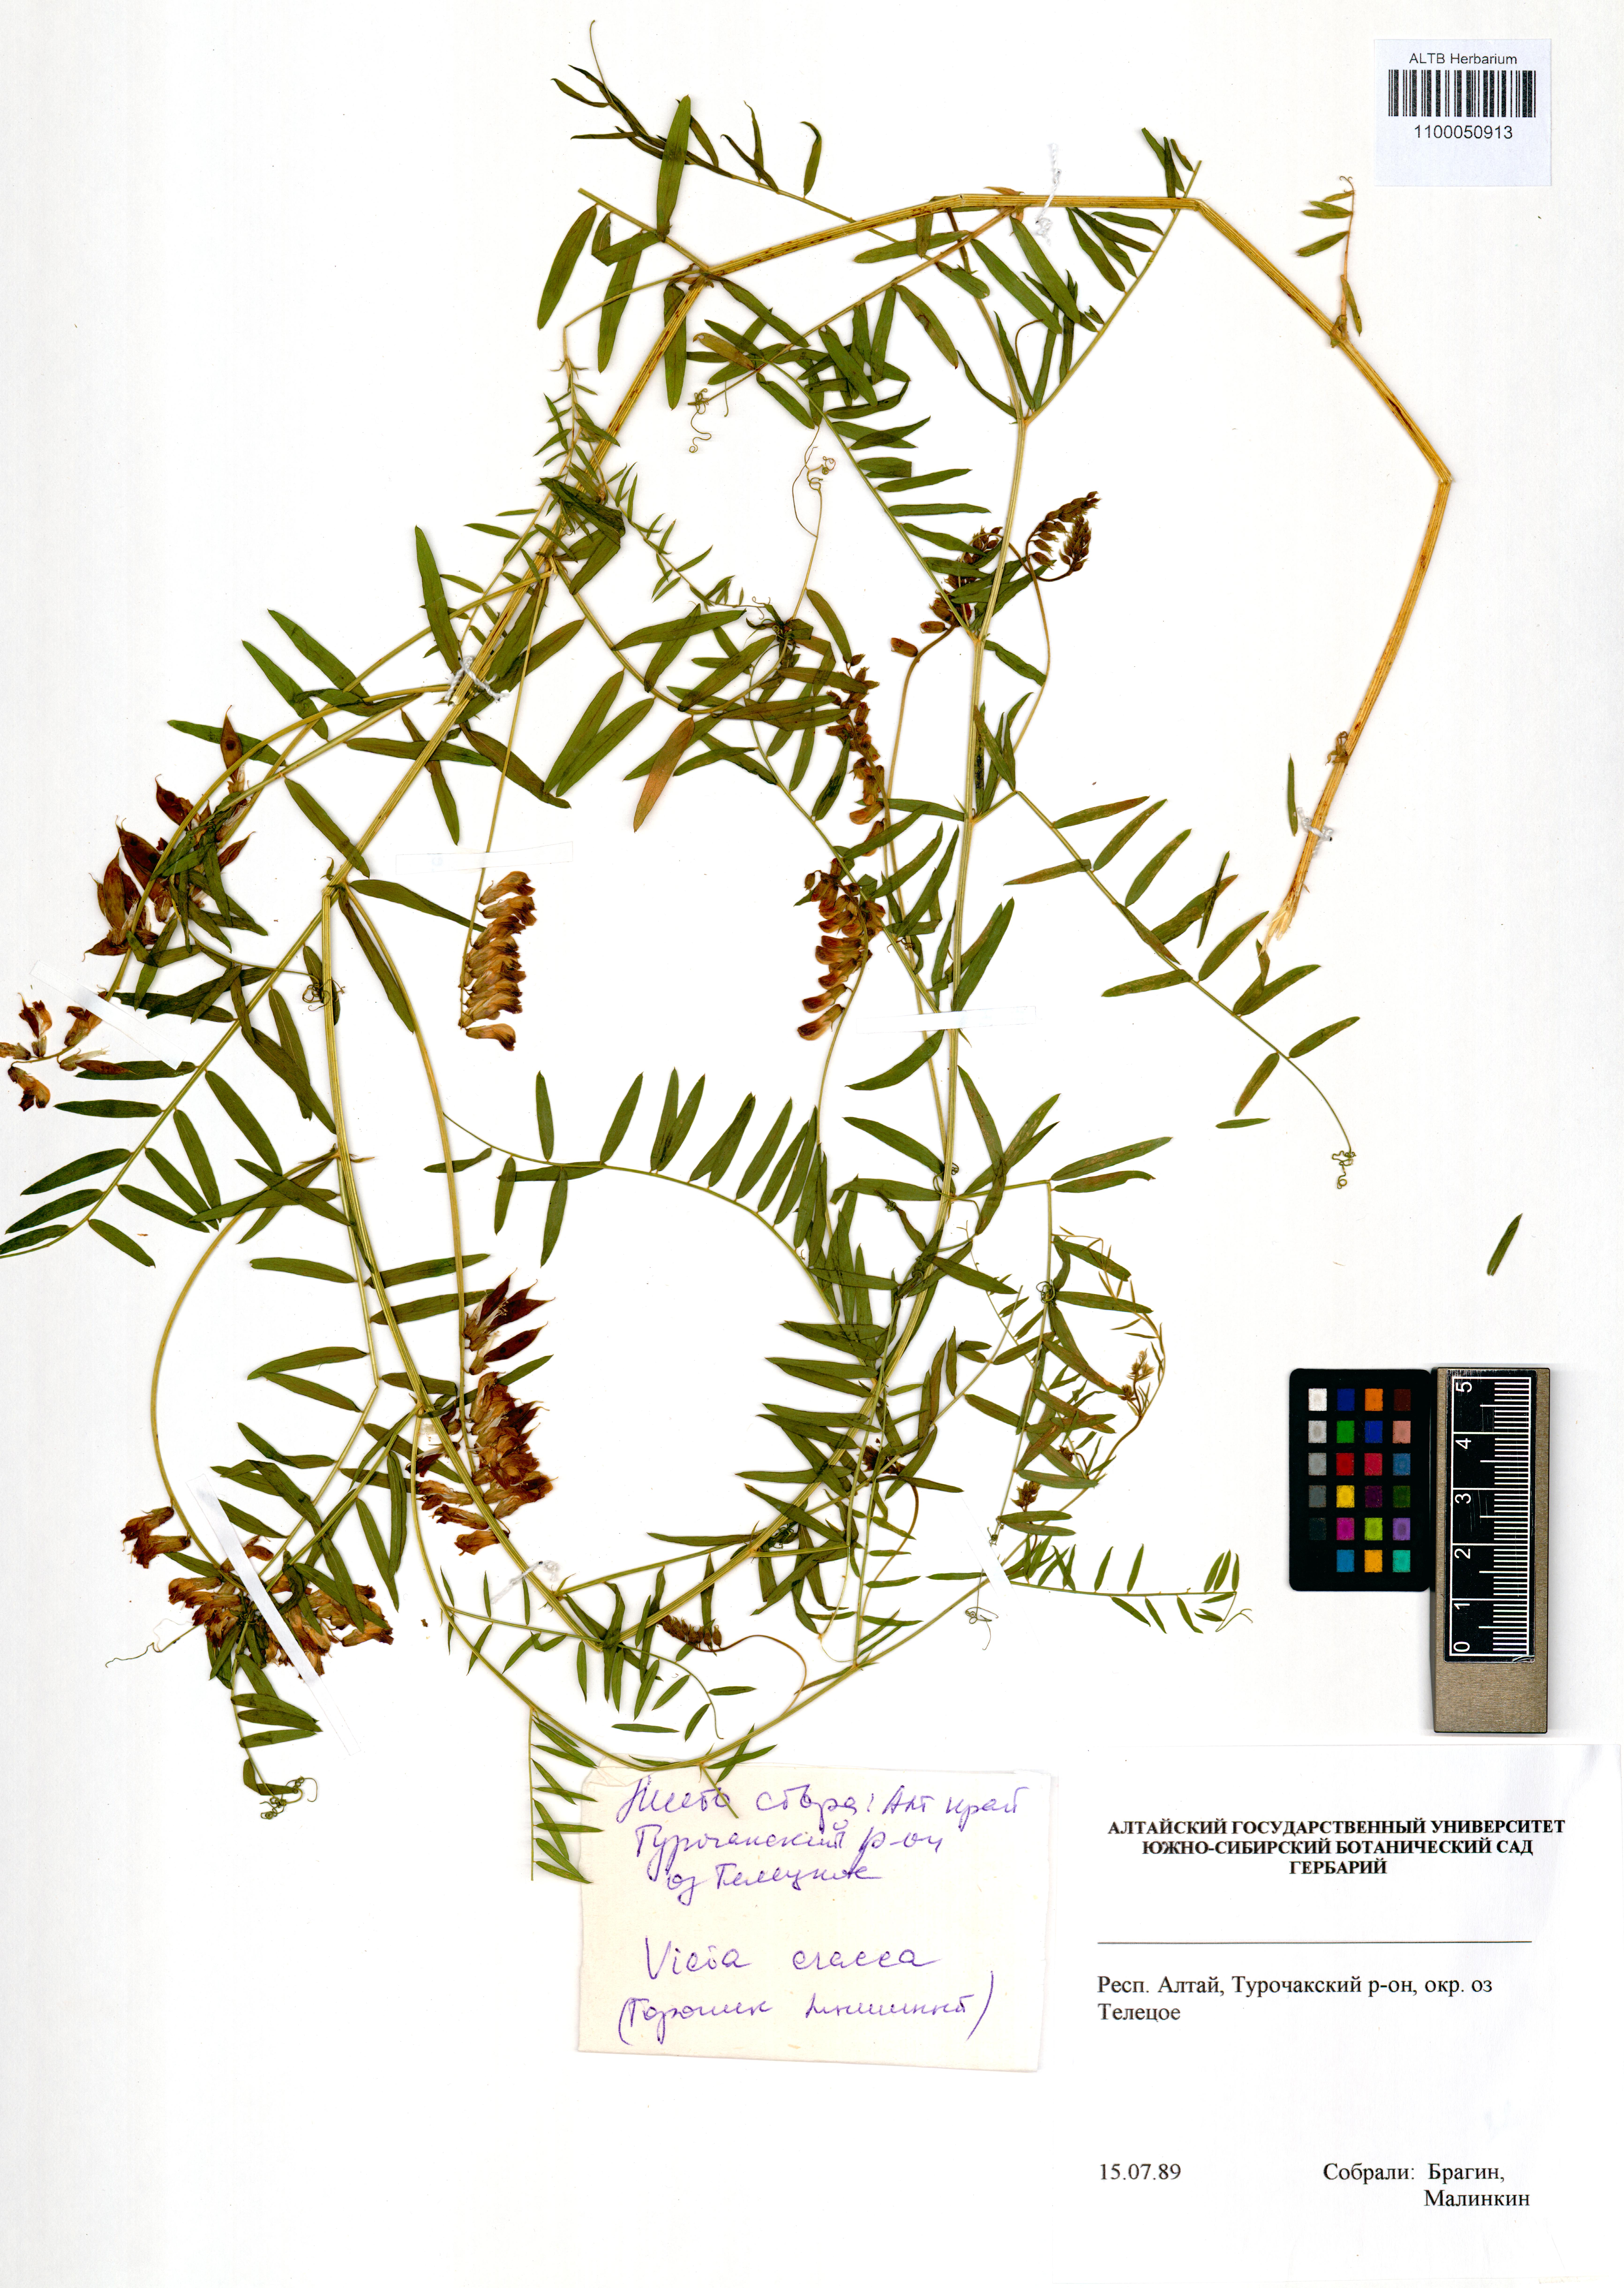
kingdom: Plantae
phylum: Tracheophyta
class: Magnoliopsida
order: Fabales
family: Fabaceae
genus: Vicia
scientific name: Vicia cracca
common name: Bird vetch
